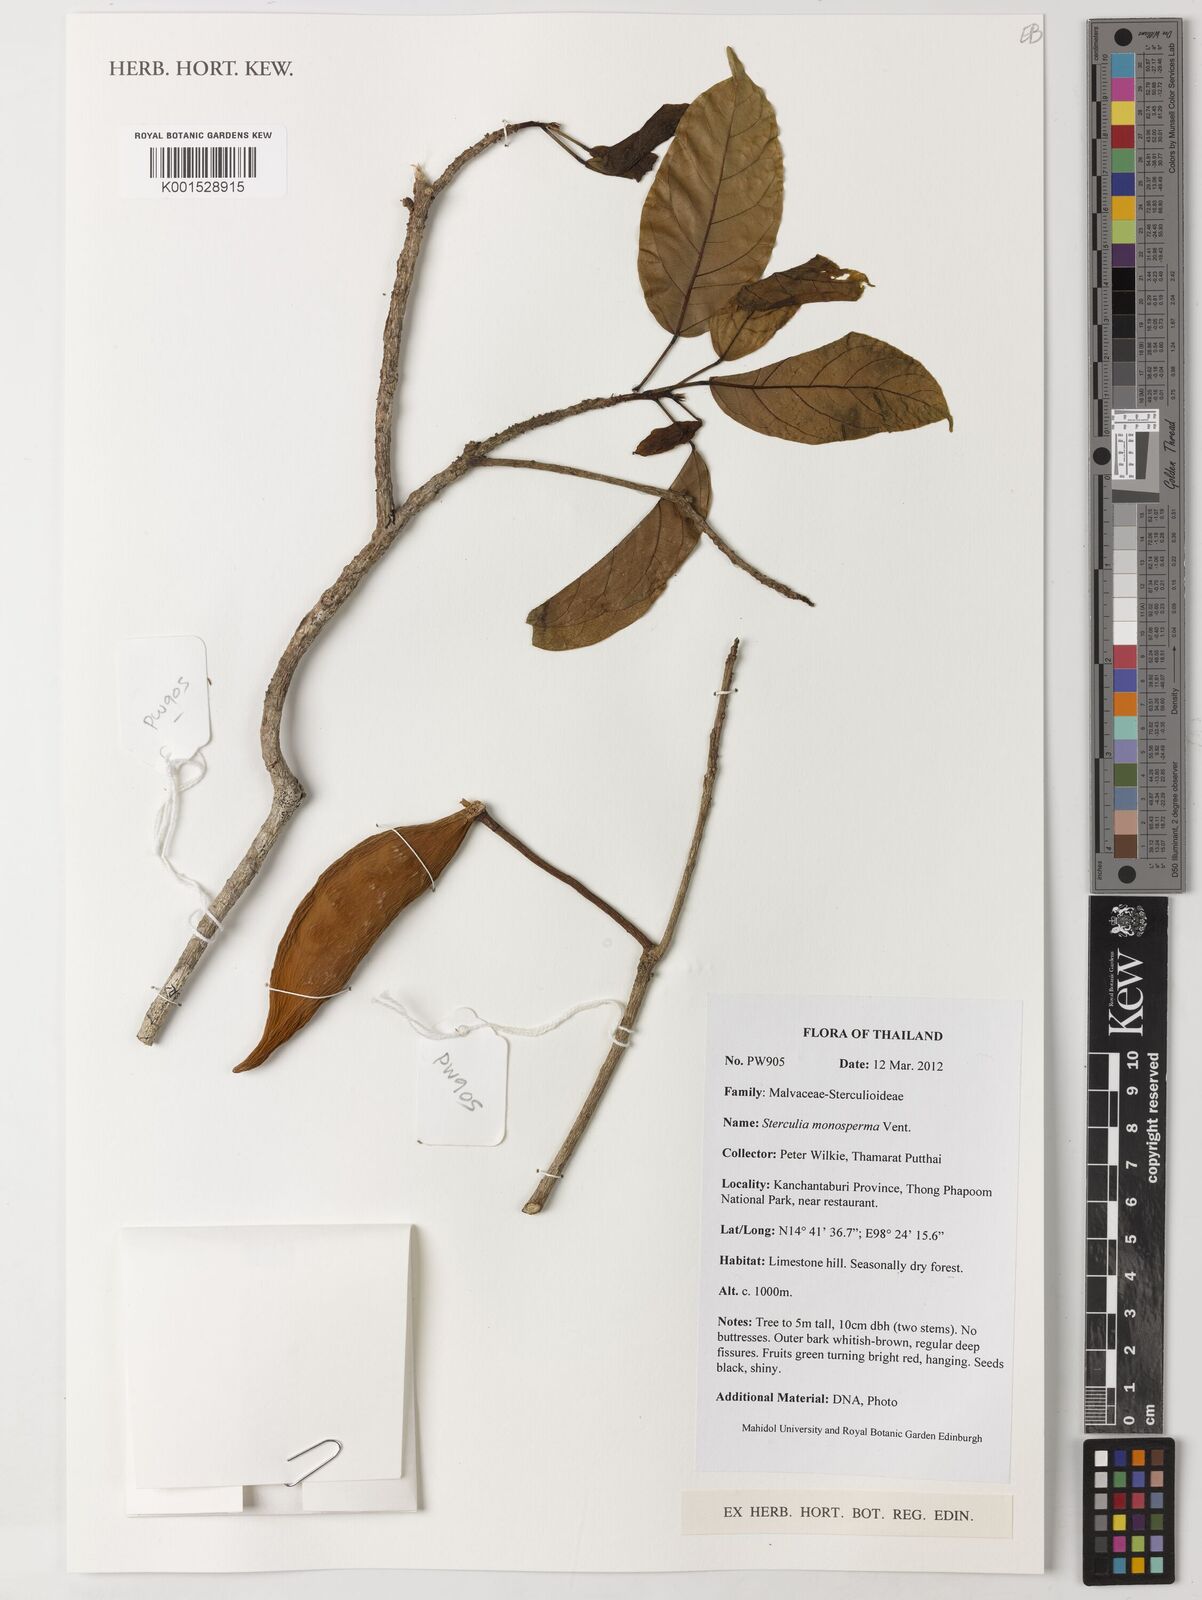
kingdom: Plantae
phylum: Tracheophyta
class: Magnoliopsida
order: Malvales
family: Malvaceae
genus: Sterculia
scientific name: Sterculia monosperma
